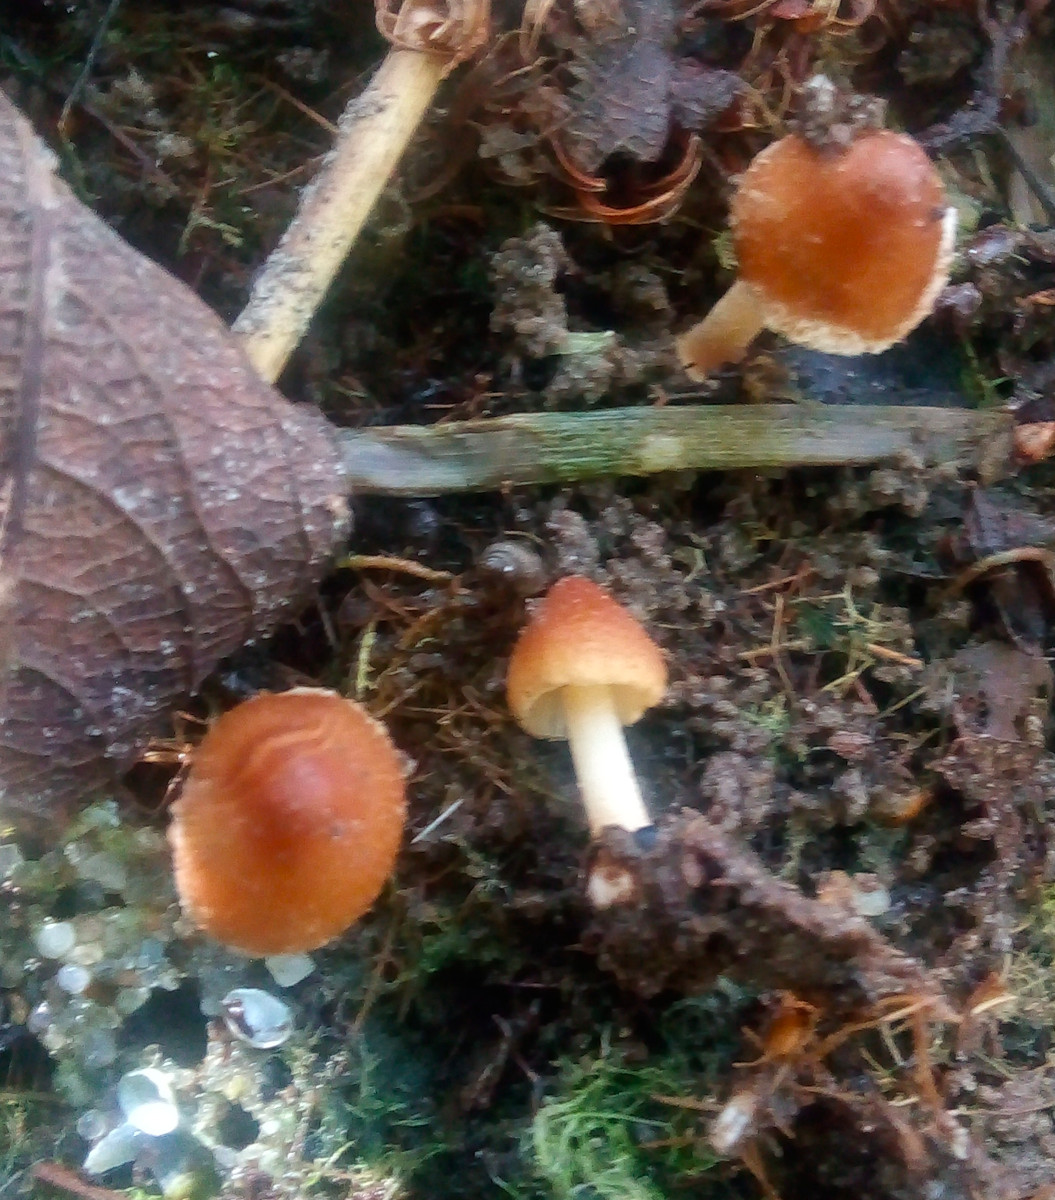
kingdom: Fungi
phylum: Basidiomycota
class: Agaricomycetes
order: Agaricales
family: Inocybaceae
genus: Inocybe
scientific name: Inocybe salicis
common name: pile-trævlhat
